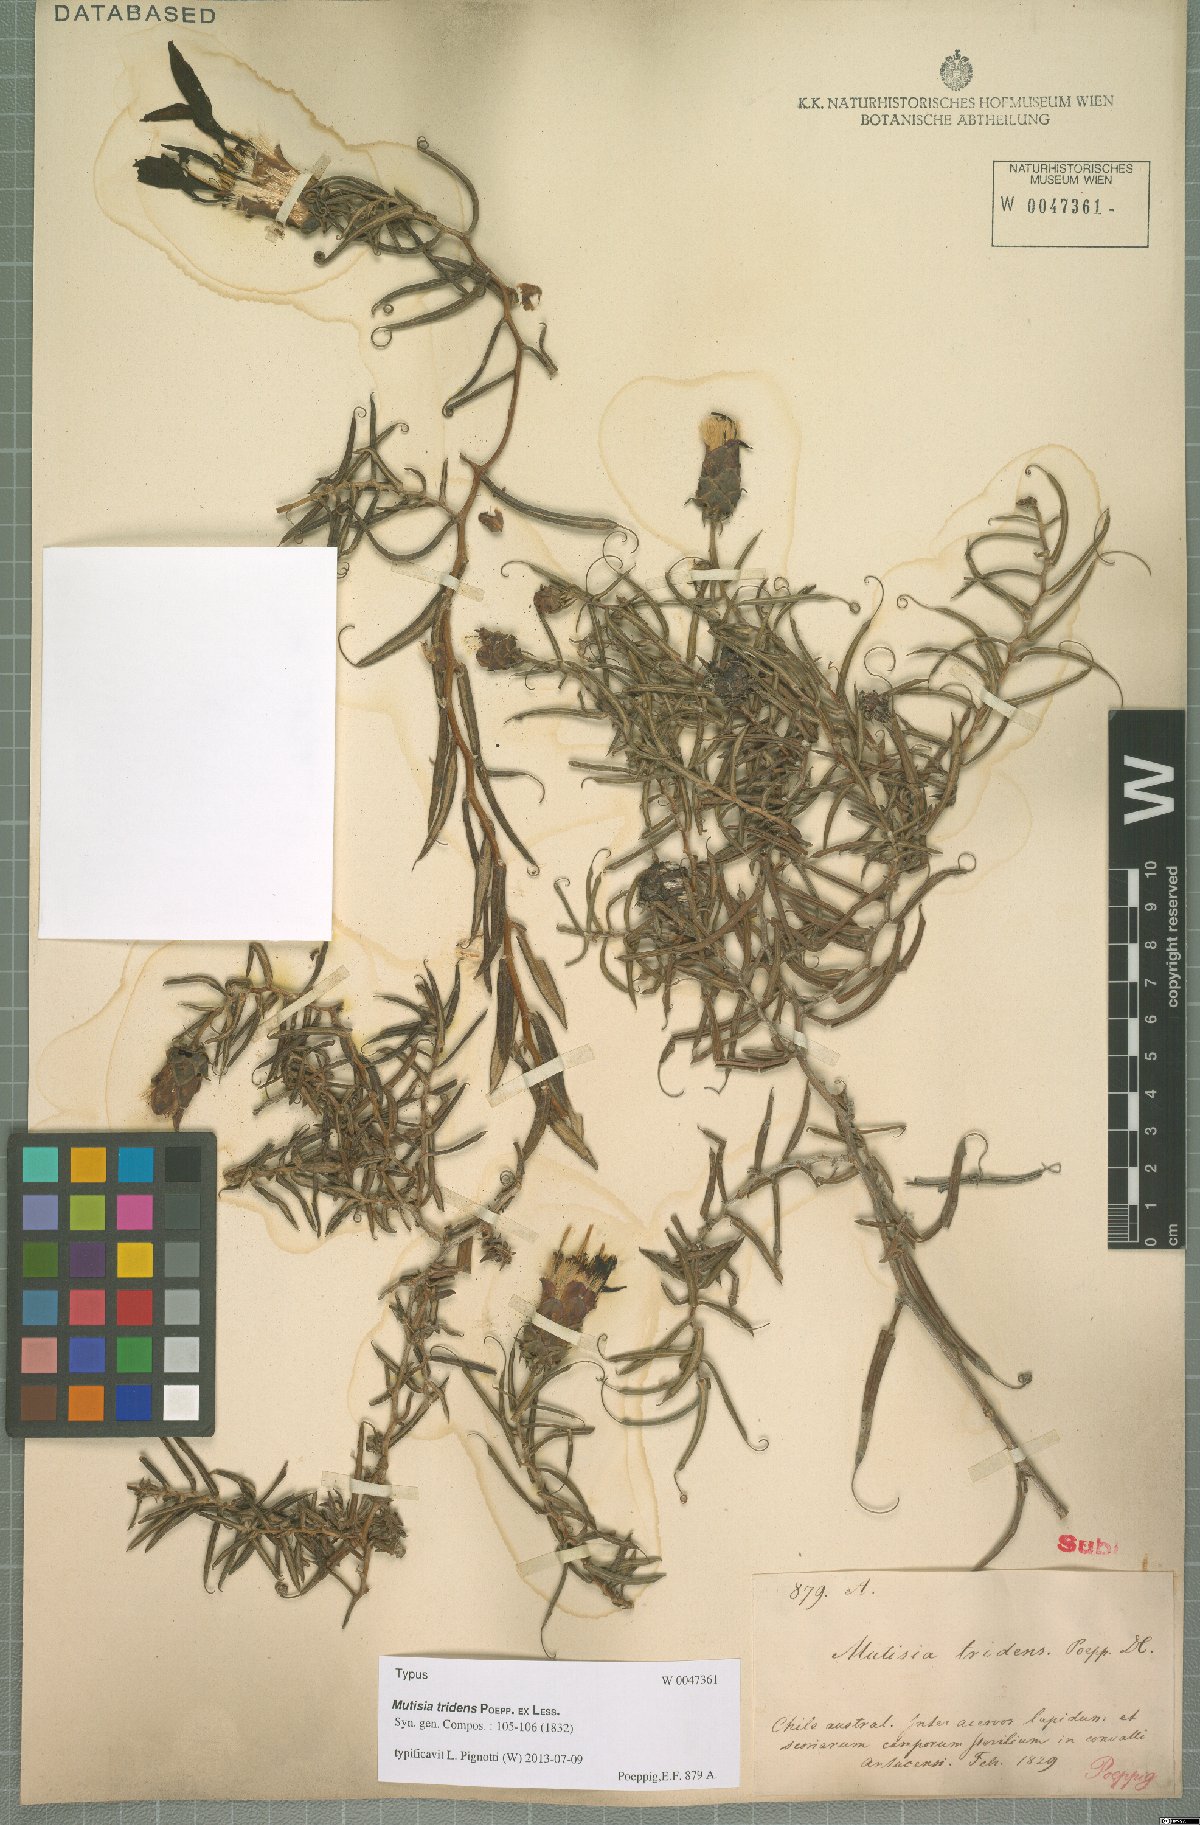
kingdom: Plantae
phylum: Tracheophyta
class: Magnoliopsida
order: Asterales
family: Asteraceae
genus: Mutisia
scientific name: Mutisia tridens
